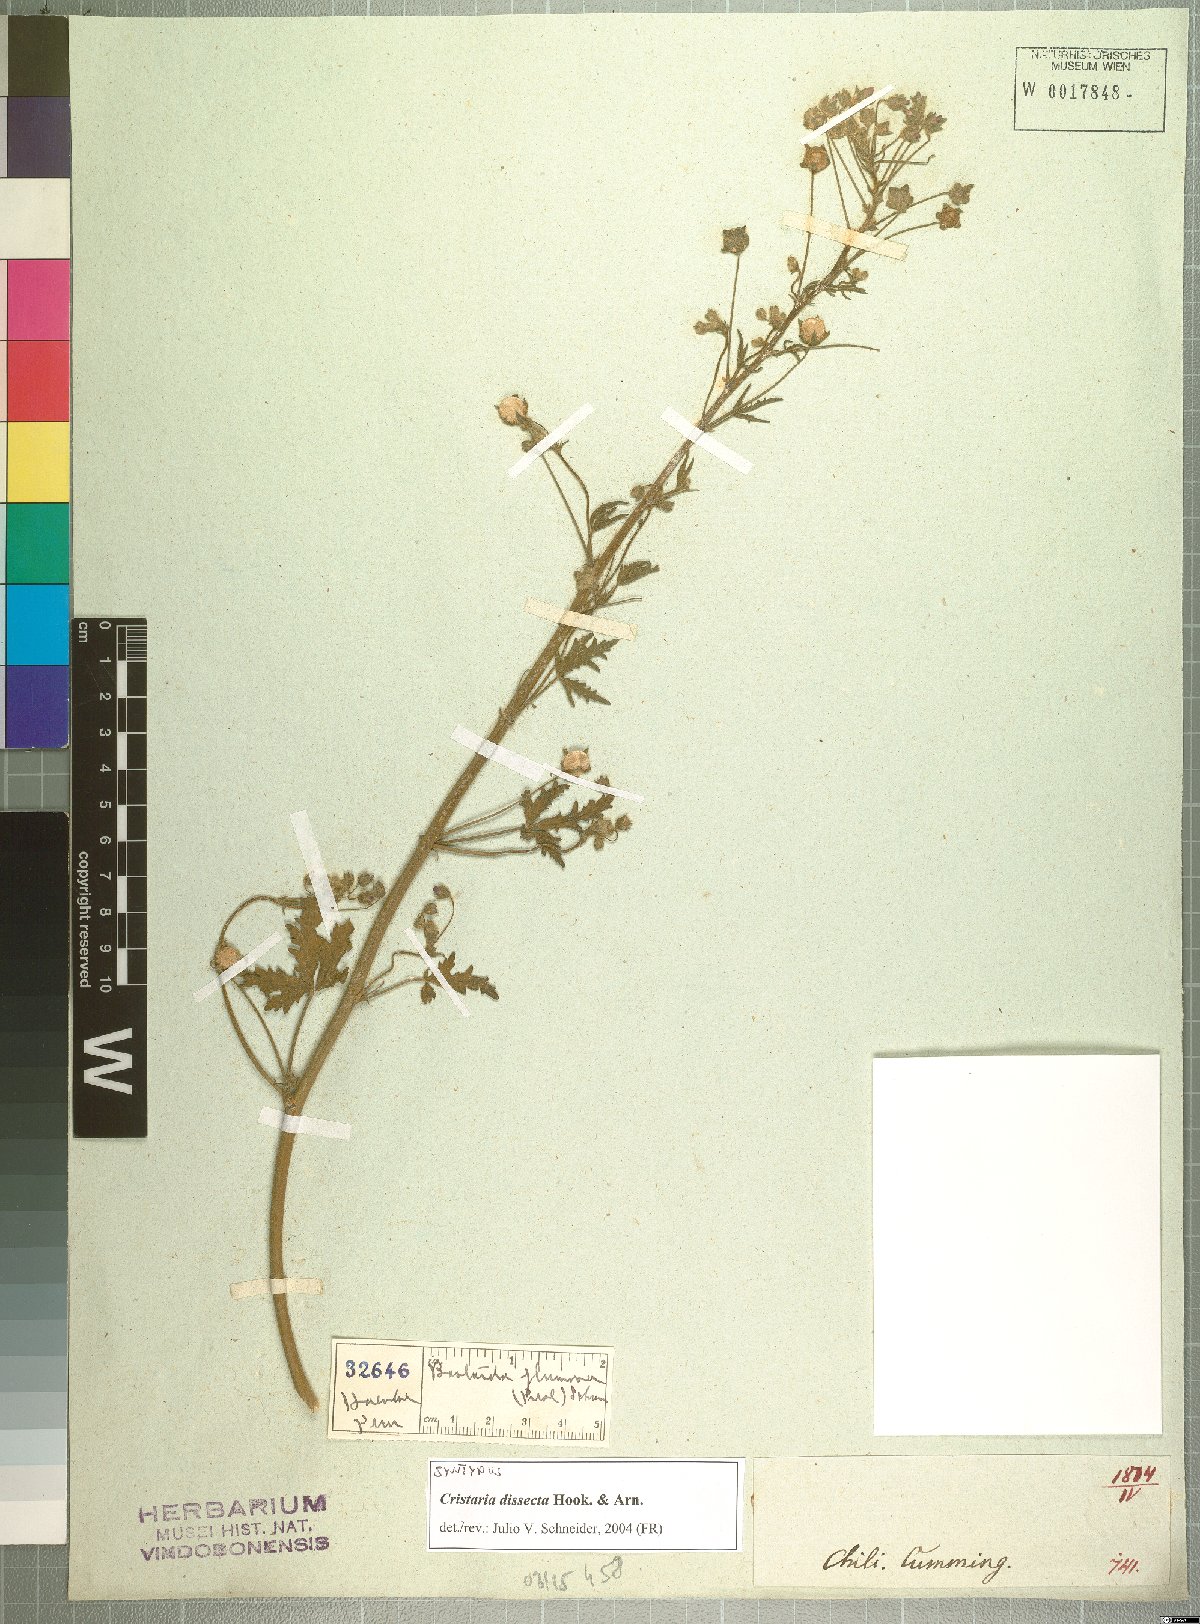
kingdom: Plantae
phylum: Tracheophyta
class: Magnoliopsida
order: Malvales
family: Malvaceae
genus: Cristaria
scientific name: Cristaria dissecta
